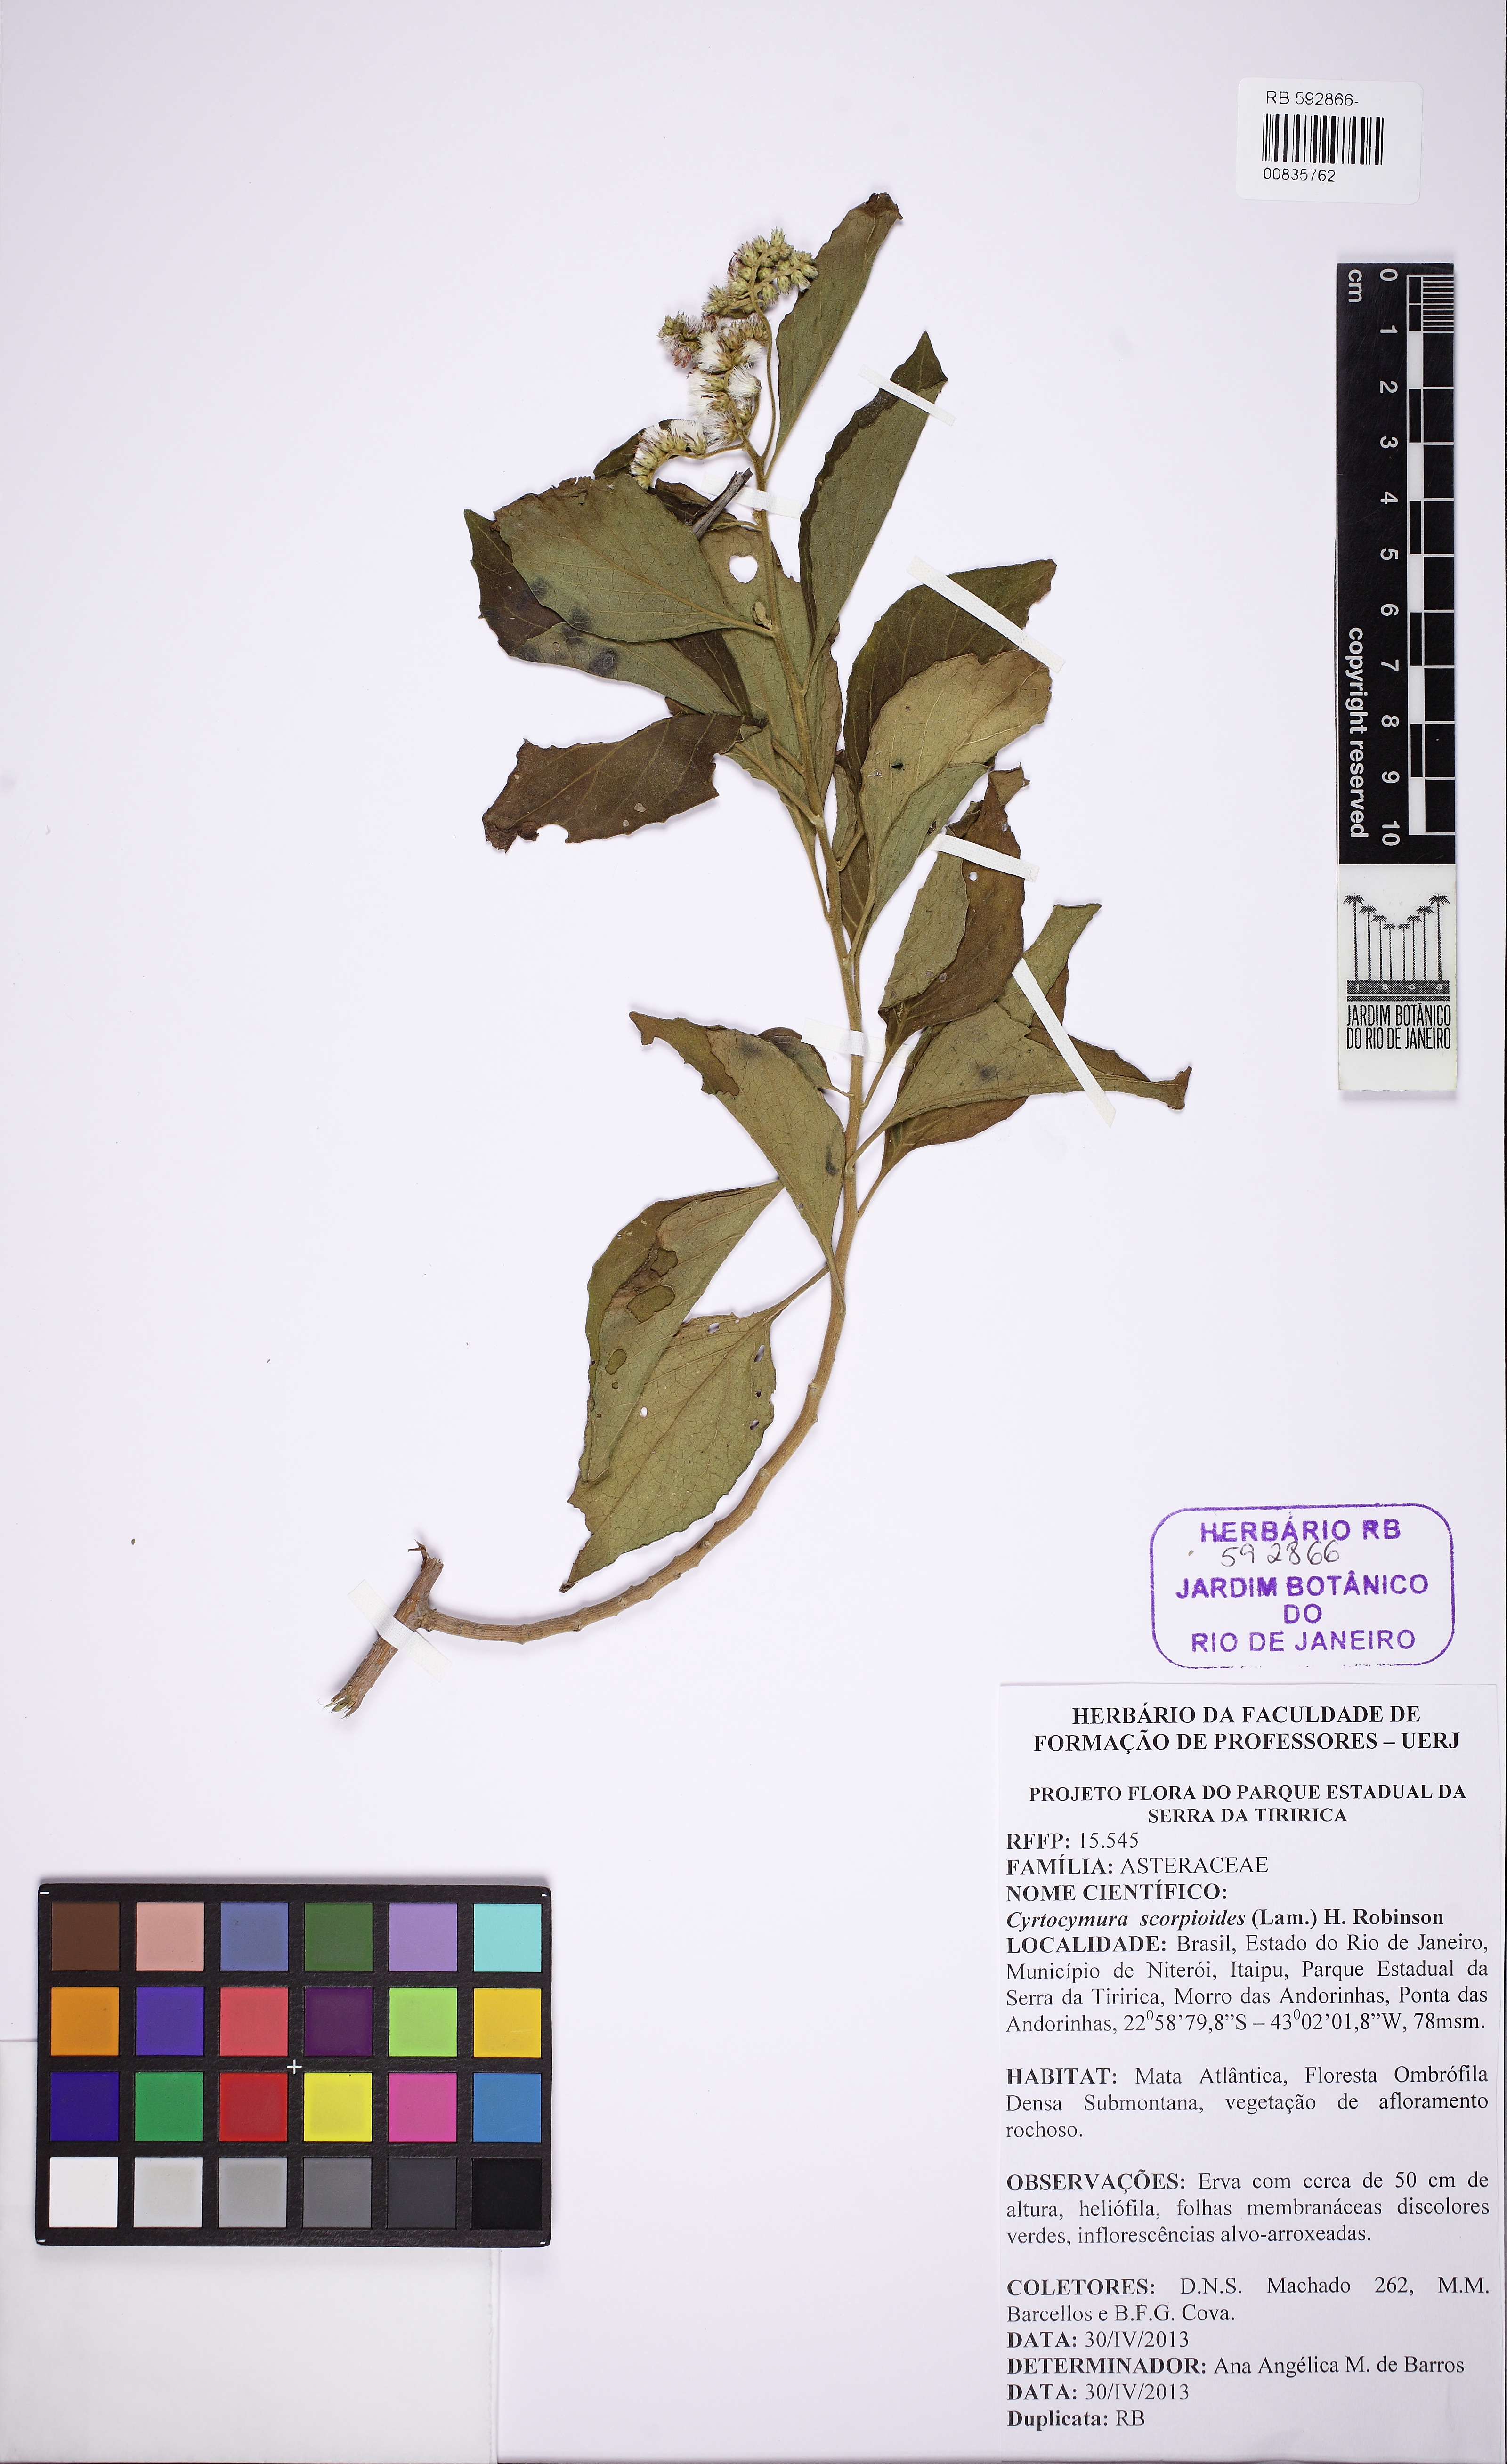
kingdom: Plantae
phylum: Tracheophyta
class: Magnoliopsida
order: Asterales
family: Asteraceae
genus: Cyrtocymura
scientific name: Cyrtocymura scorpioides
